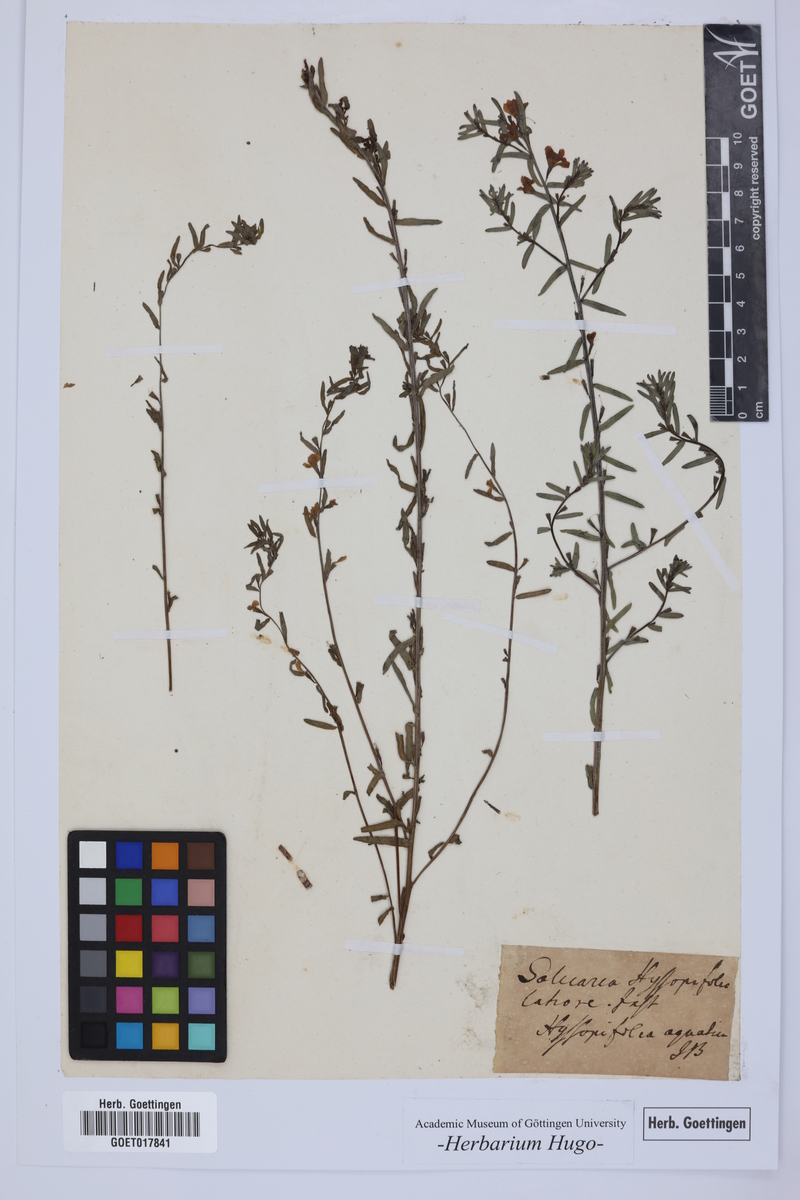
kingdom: Plantae
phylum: Tracheophyta
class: Magnoliopsida
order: Myrtales
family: Lythraceae
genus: Lythrum
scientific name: Lythrum hyssopifolia
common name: Grass-poly
